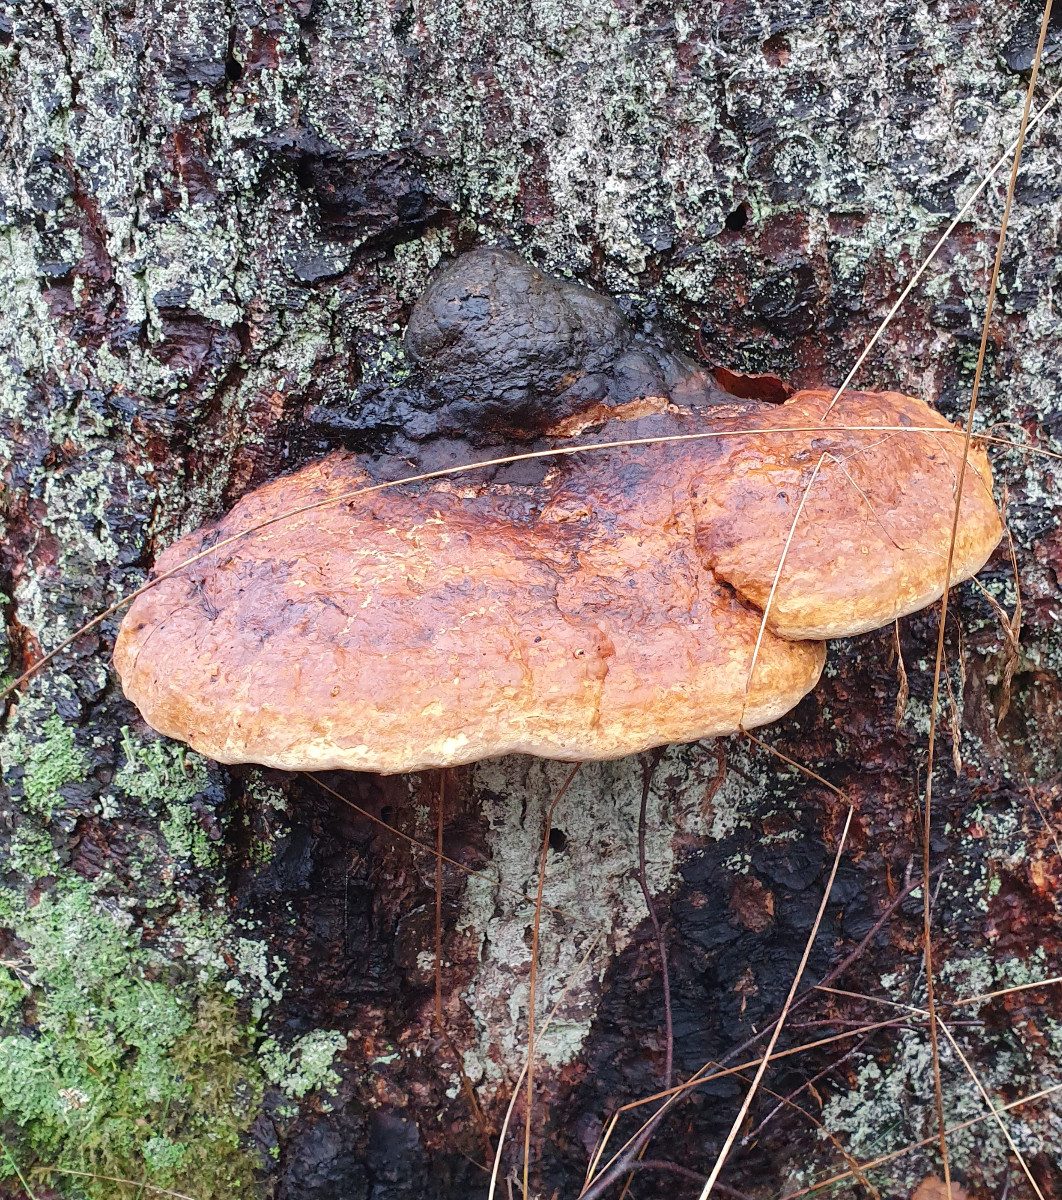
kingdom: Fungi
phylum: Basidiomycota
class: Agaricomycetes
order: Polyporales
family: Fomitopsidaceae
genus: Fomitopsis
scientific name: Fomitopsis pinicola
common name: randbæltet hovporesvamp
